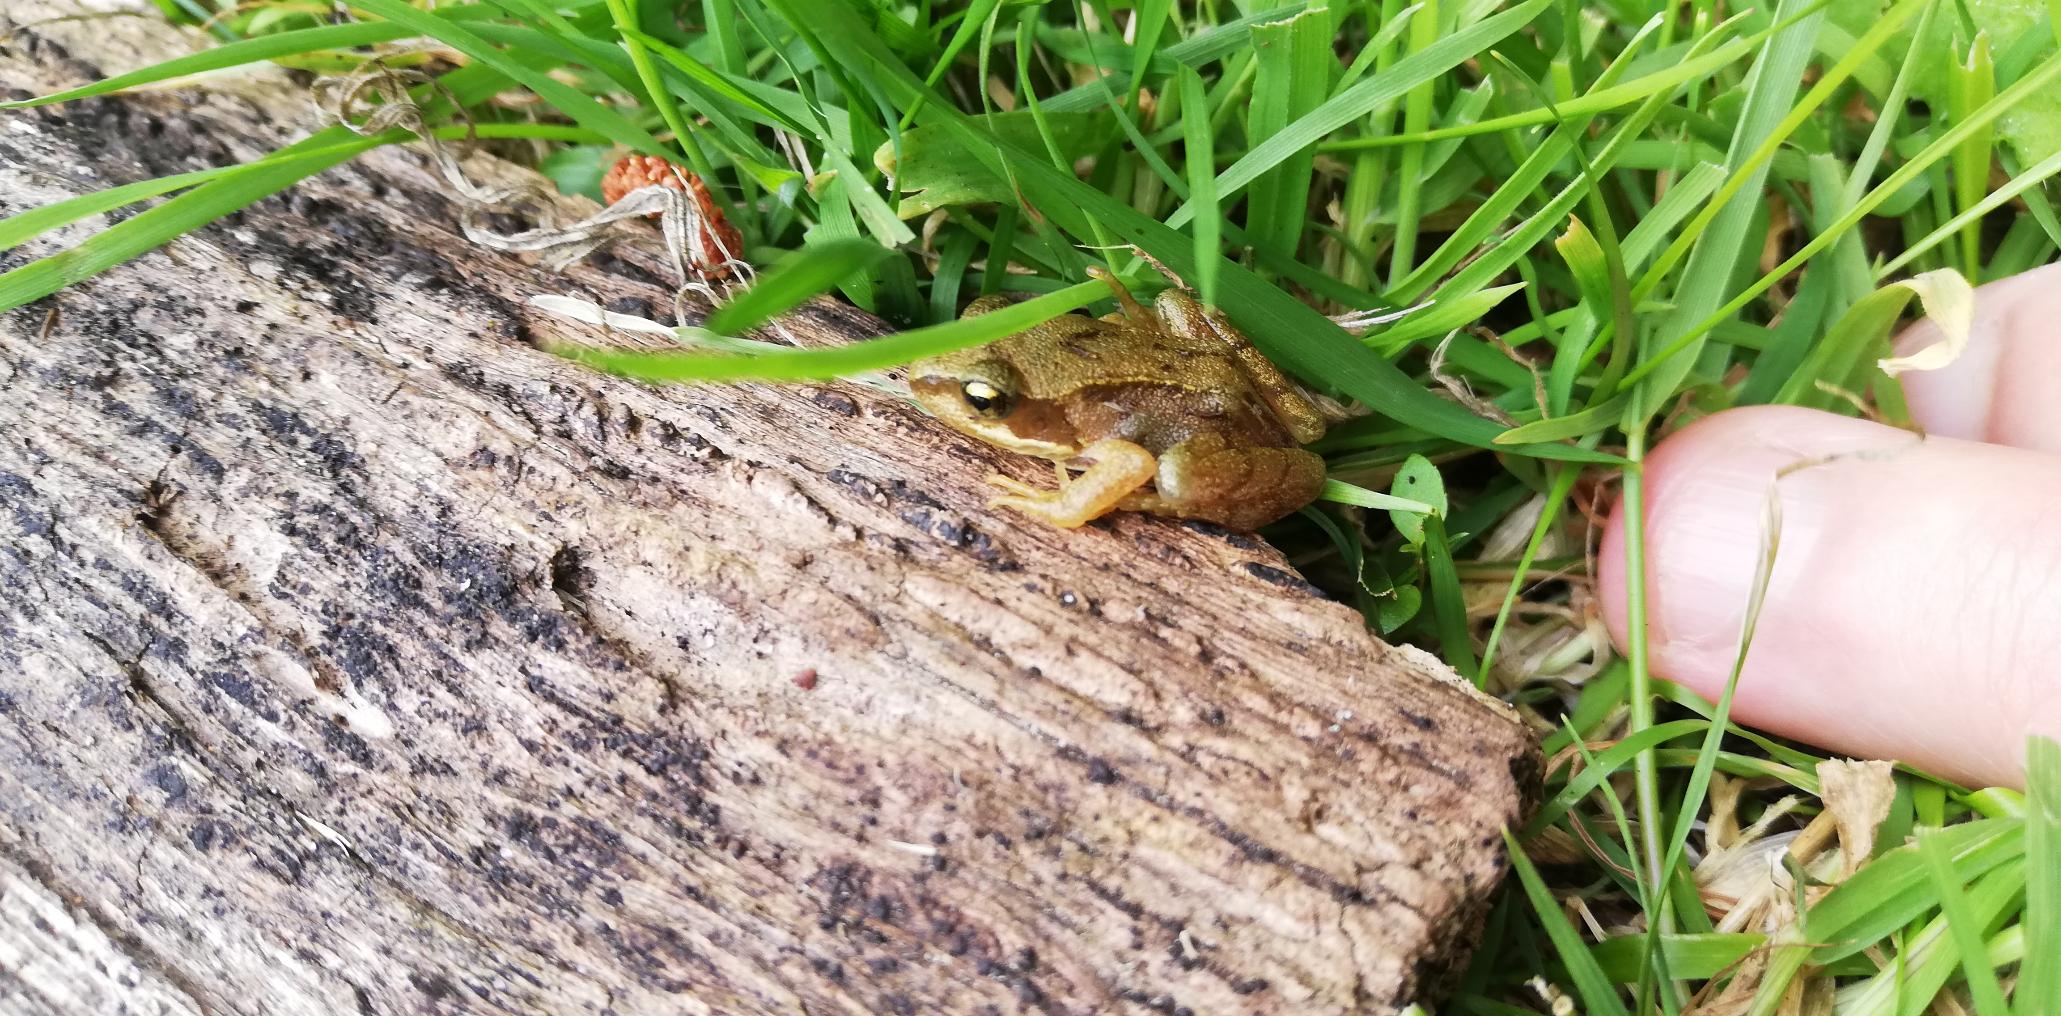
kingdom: Animalia
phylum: Chordata
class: Amphibia
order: Anura
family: Ranidae
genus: Rana
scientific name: Rana temporaria
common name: Butsnudet frø
